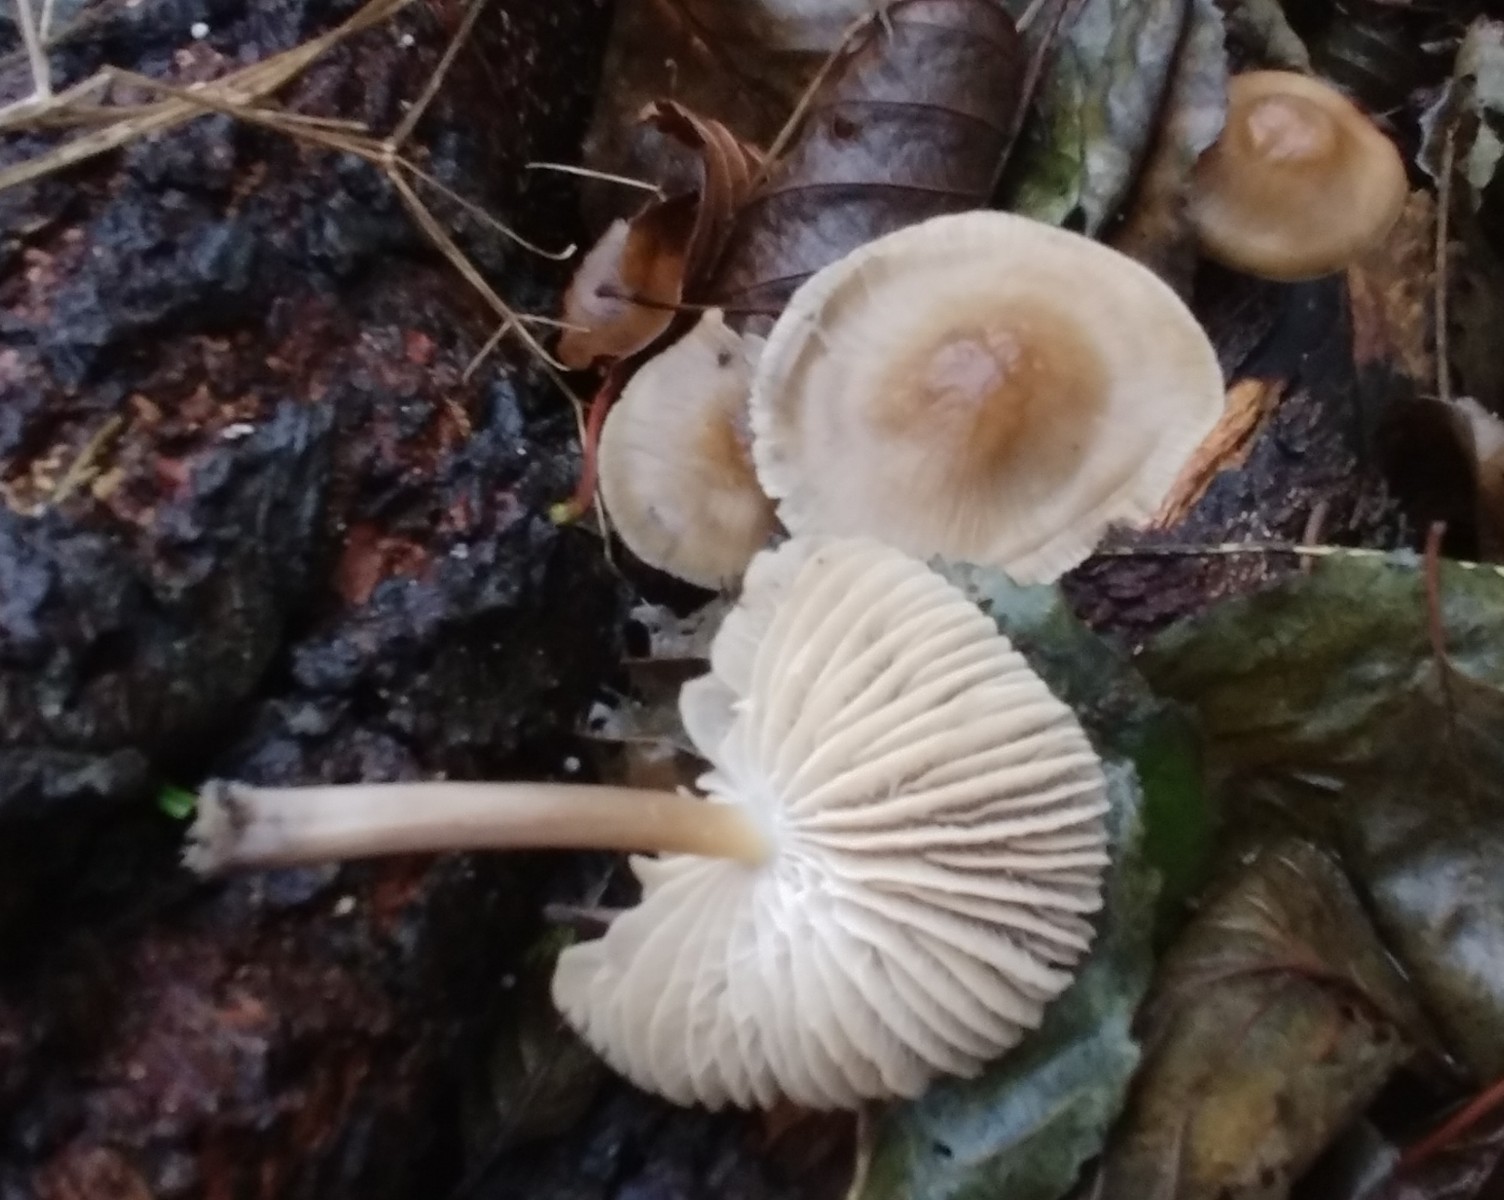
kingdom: Fungi
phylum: Basidiomycota
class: Agaricomycetes
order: Agaricales
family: Mycenaceae
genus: Mycena
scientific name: Mycena galericulata
